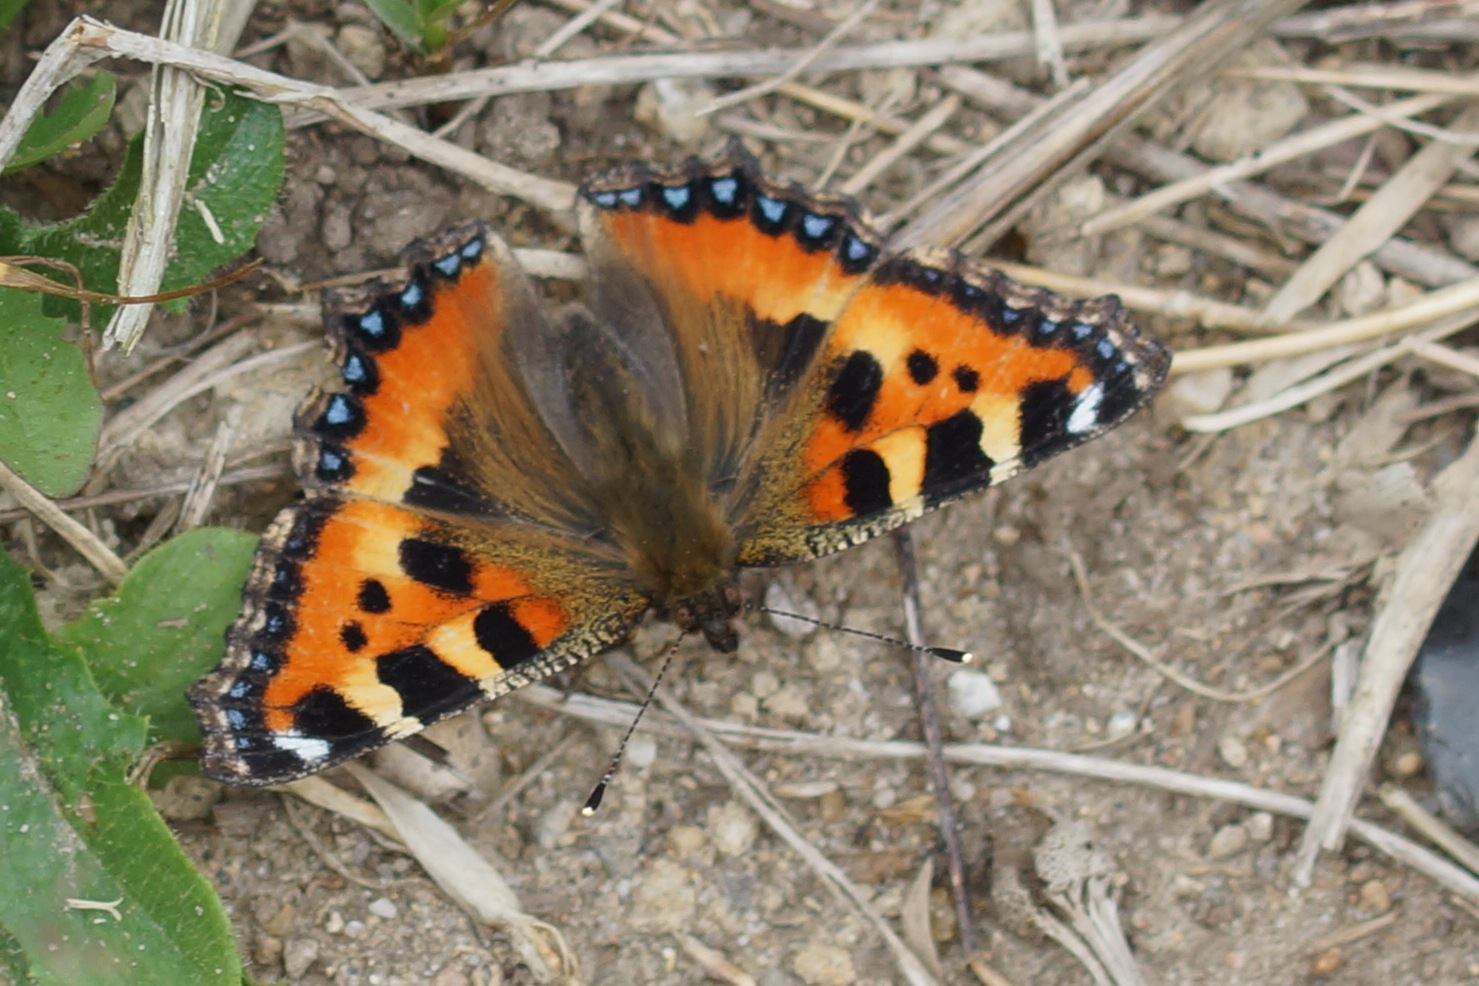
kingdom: Animalia
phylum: Arthropoda
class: Insecta
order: Lepidoptera
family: Nymphalidae
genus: Aglais
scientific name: Aglais urticae
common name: Nældens takvinge
